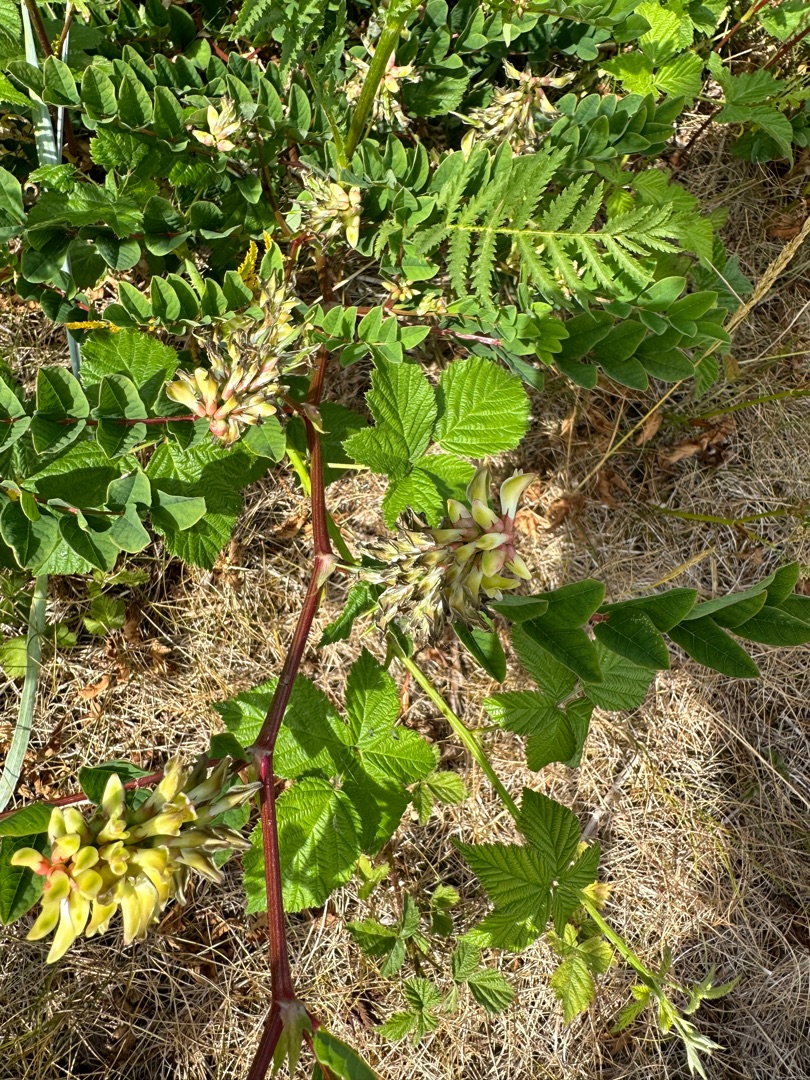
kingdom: Plantae
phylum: Tracheophyta
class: Magnoliopsida
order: Fabales
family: Fabaceae
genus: Astragalus
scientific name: Astragalus glycyphyllos
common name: Sød astragel
